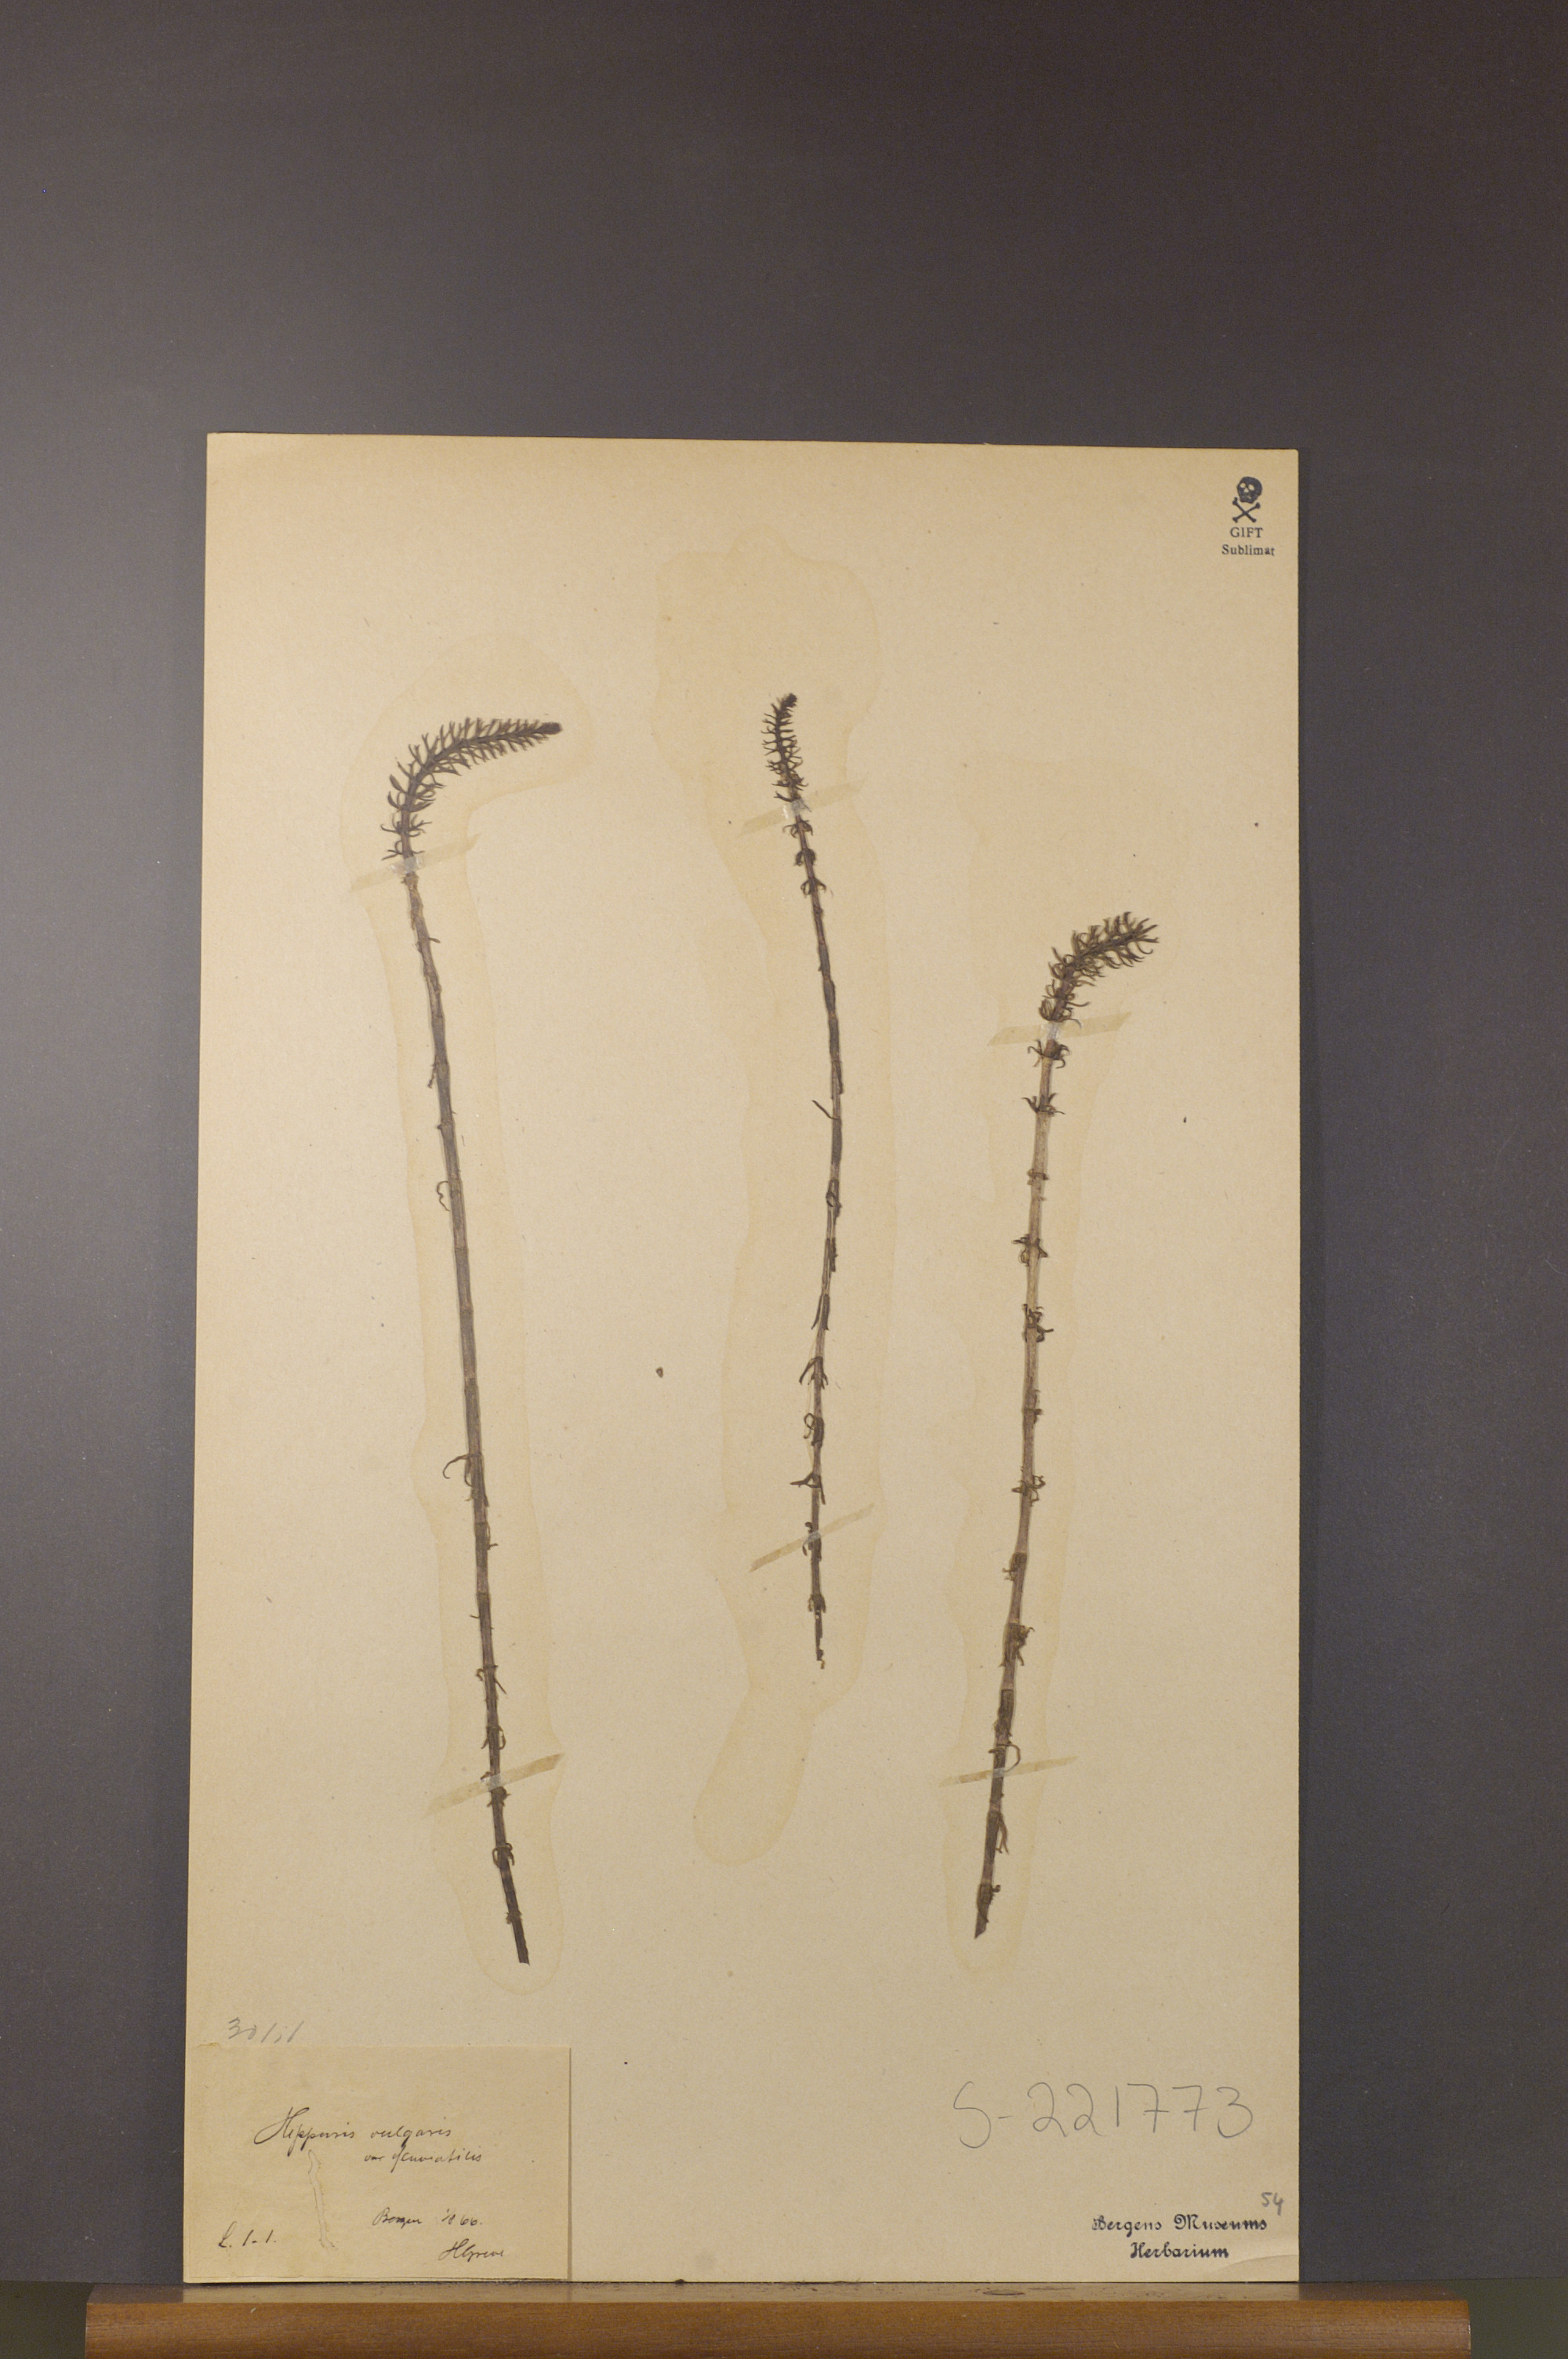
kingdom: Plantae
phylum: Tracheophyta
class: Magnoliopsida
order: Lamiales
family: Plantaginaceae
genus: Hippuris
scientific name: Hippuris vulgaris
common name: Mare's-tail
